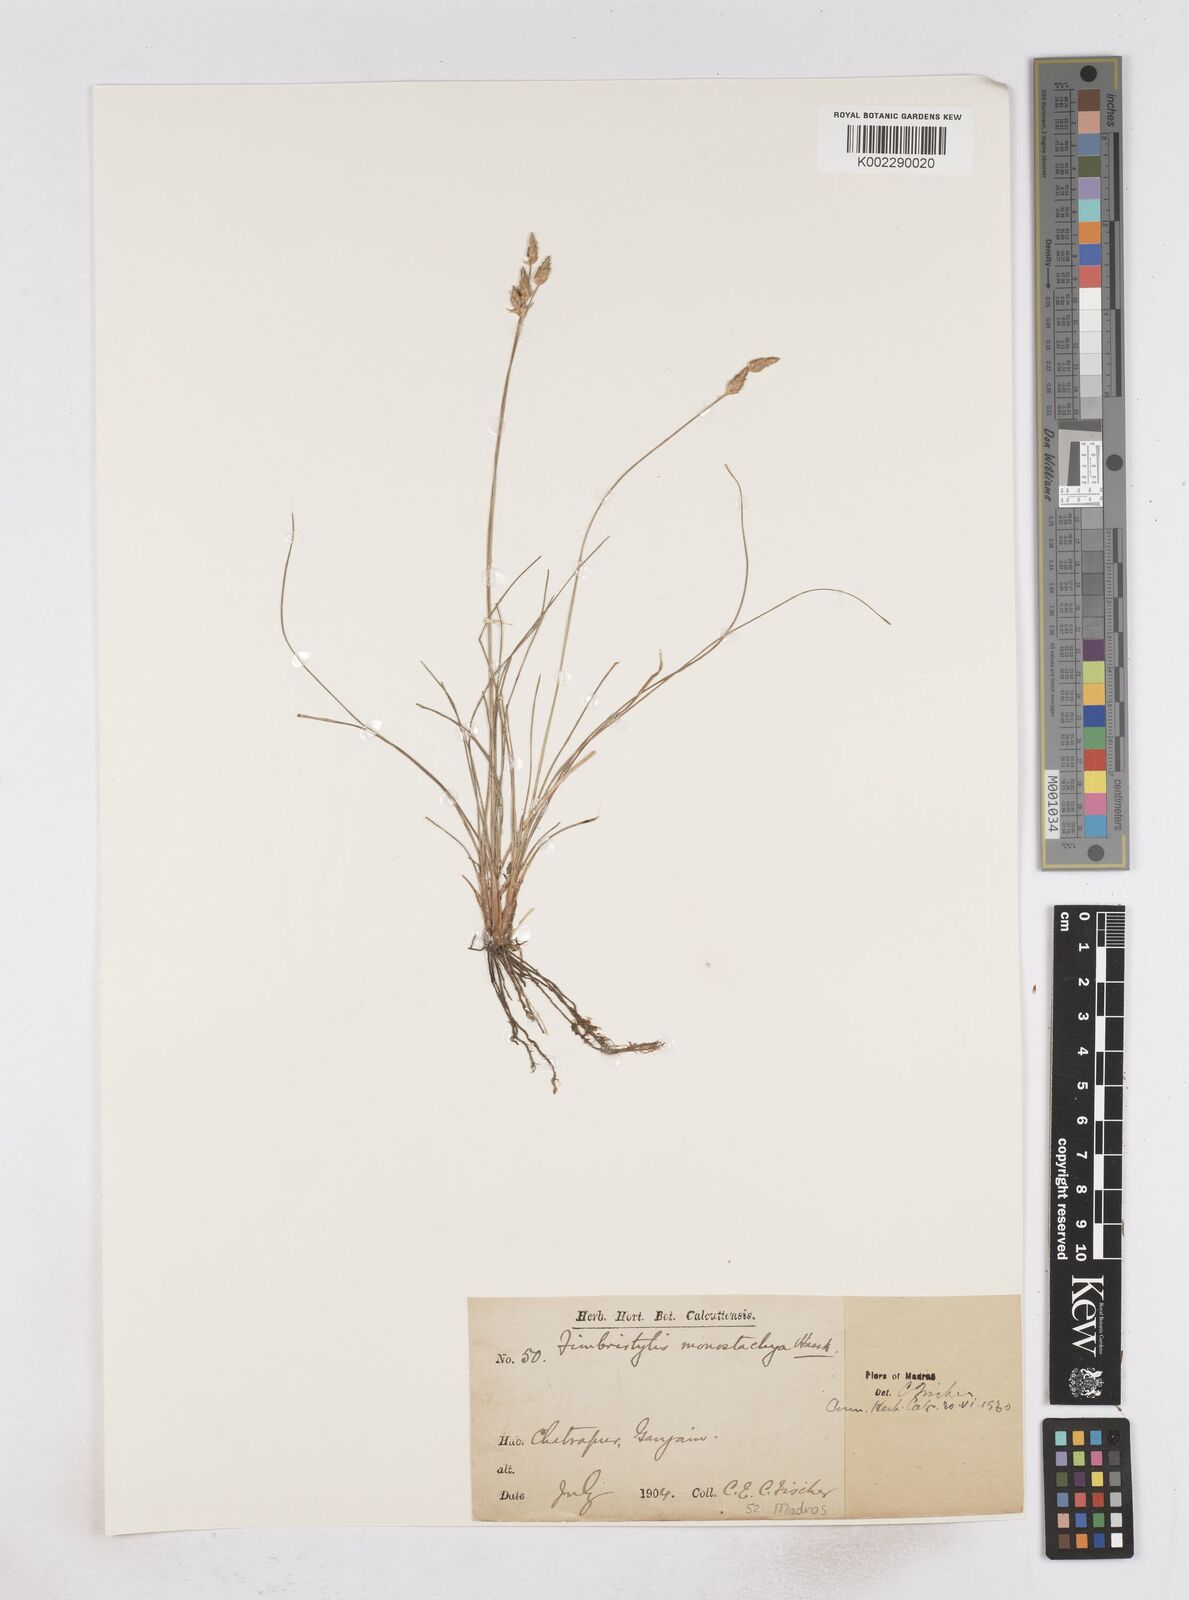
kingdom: Plantae
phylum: Tracheophyta
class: Liliopsida
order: Poales
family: Cyperaceae
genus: Abildgaardia
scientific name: Abildgaardia ovata
